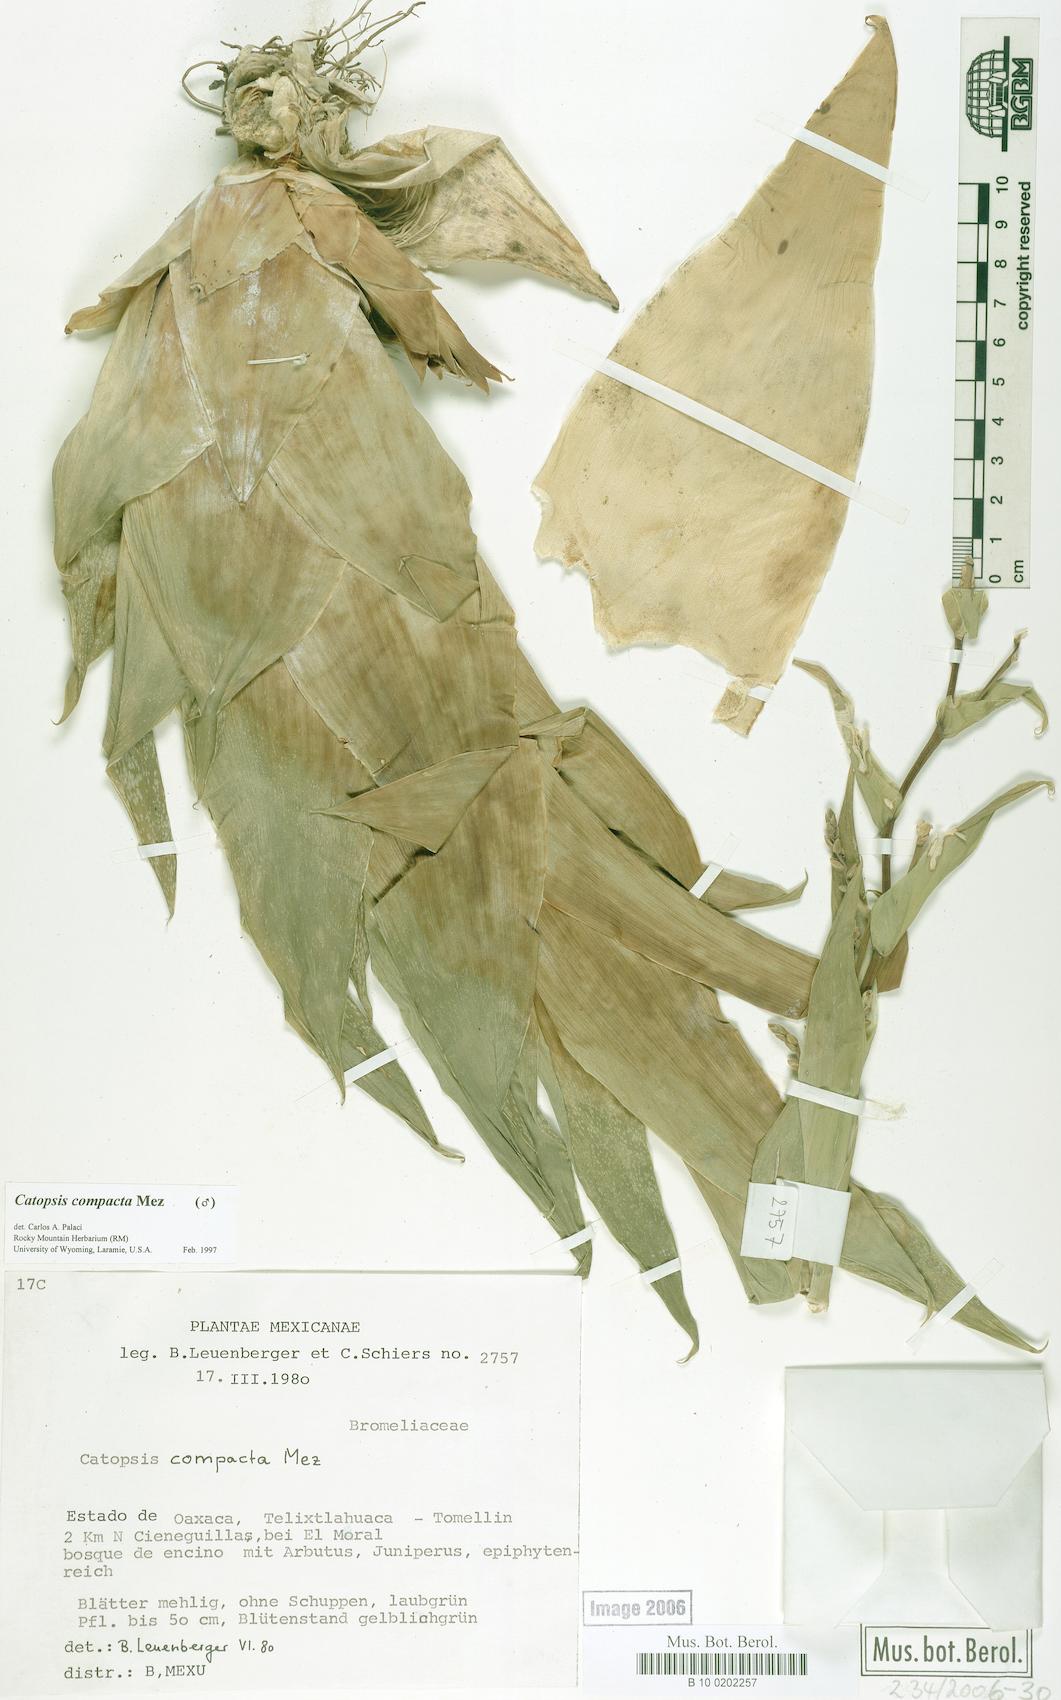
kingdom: Plantae
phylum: Tracheophyta
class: Liliopsida
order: Poales
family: Bromeliaceae
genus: Catopsis
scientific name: Catopsis compacta
